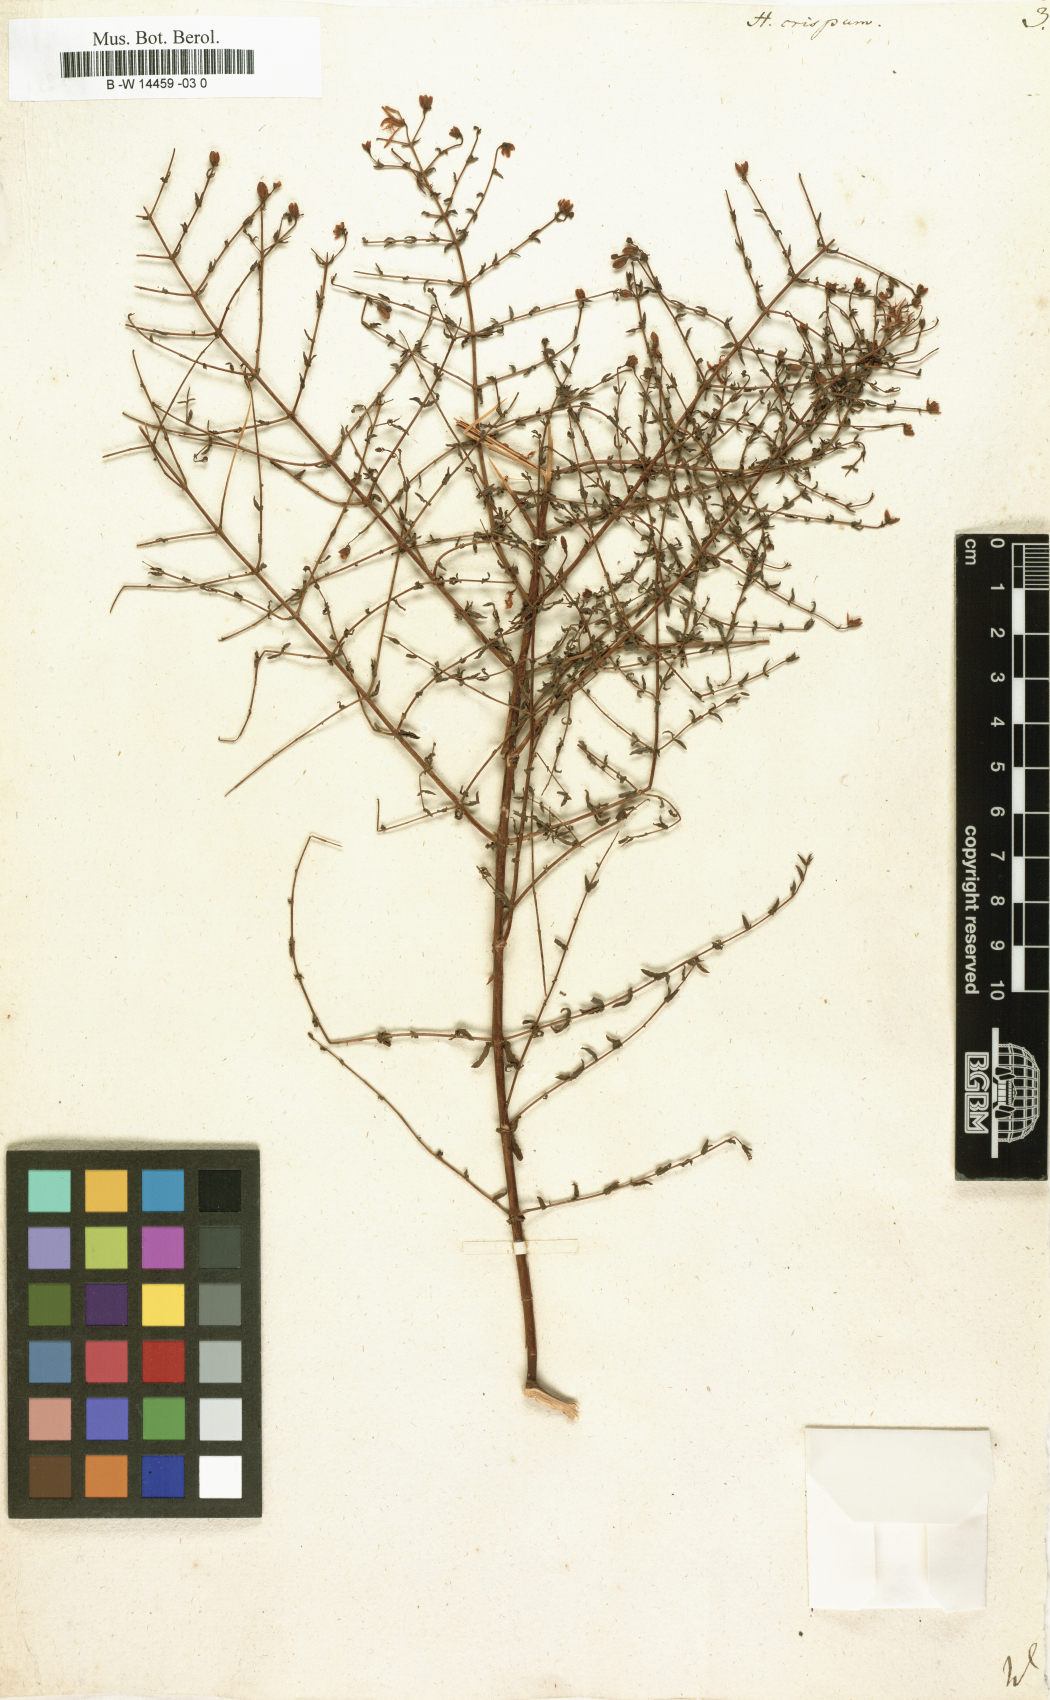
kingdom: Plantae
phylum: Tracheophyta
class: Magnoliopsida
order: Malpighiales
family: Hypericaceae
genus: Hypericum
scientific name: Hypericum triquetrifolium
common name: Tangled hypericum
